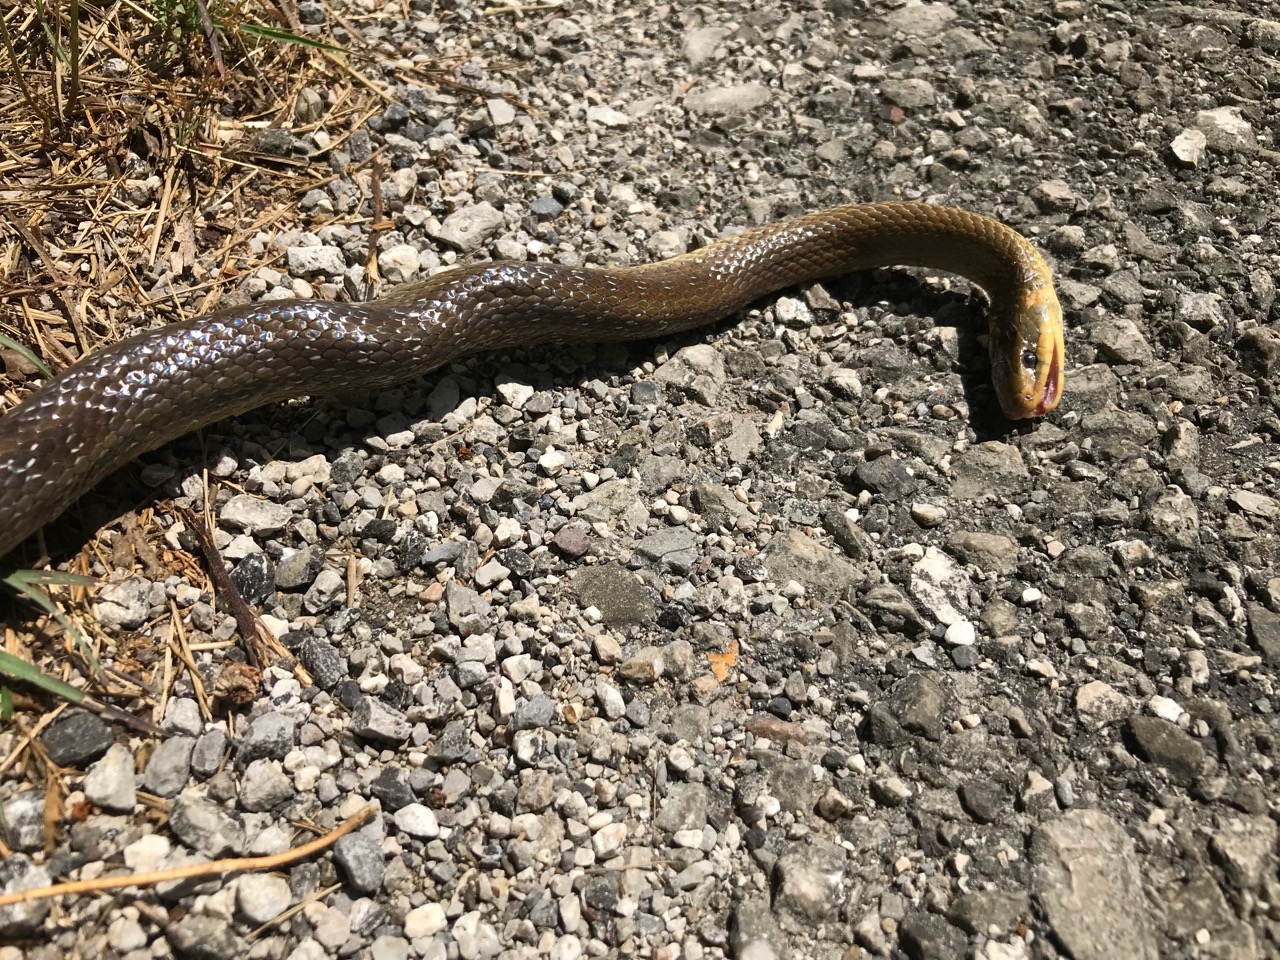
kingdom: Animalia
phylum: Chordata
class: Squamata
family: Colubridae
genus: Zamenis
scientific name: Zamenis longissimus
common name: Aesculapean snake
